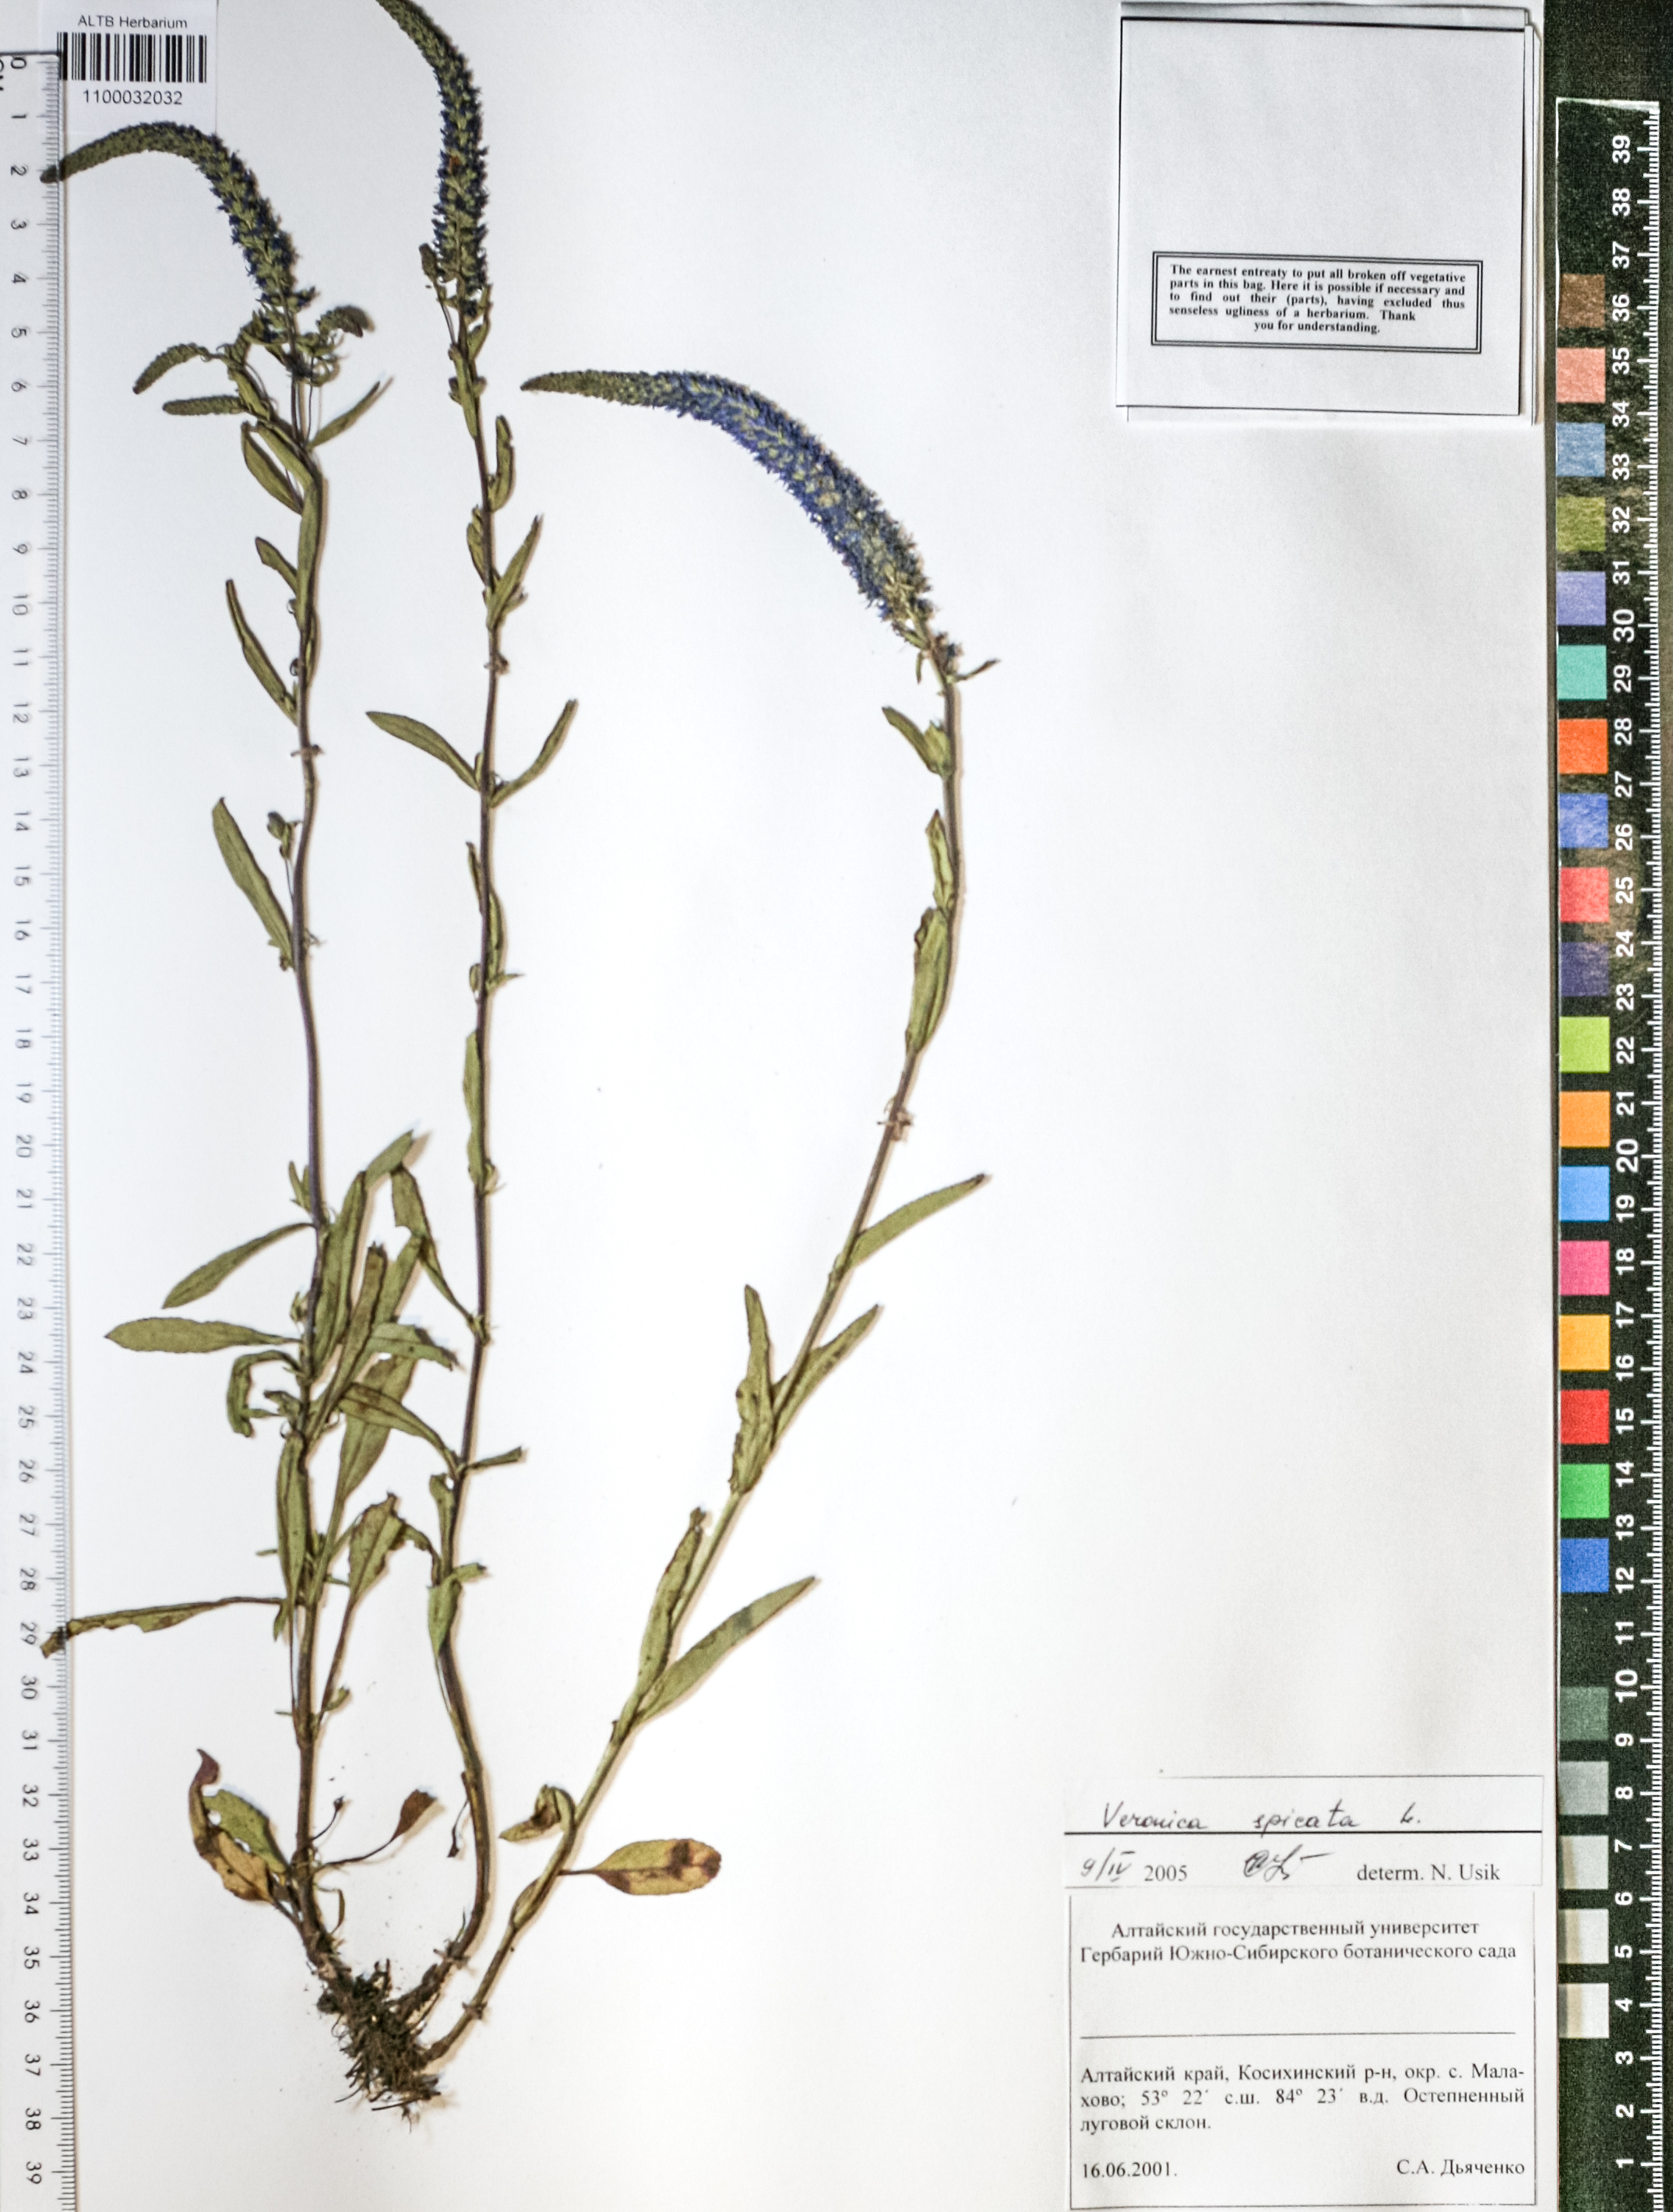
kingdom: Plantae
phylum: Tracheophyta
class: Magnoliopsida
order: Lamiales
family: Plantaginaceae
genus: Veronica
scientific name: Veronica spicata
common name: Spiked speedwell
